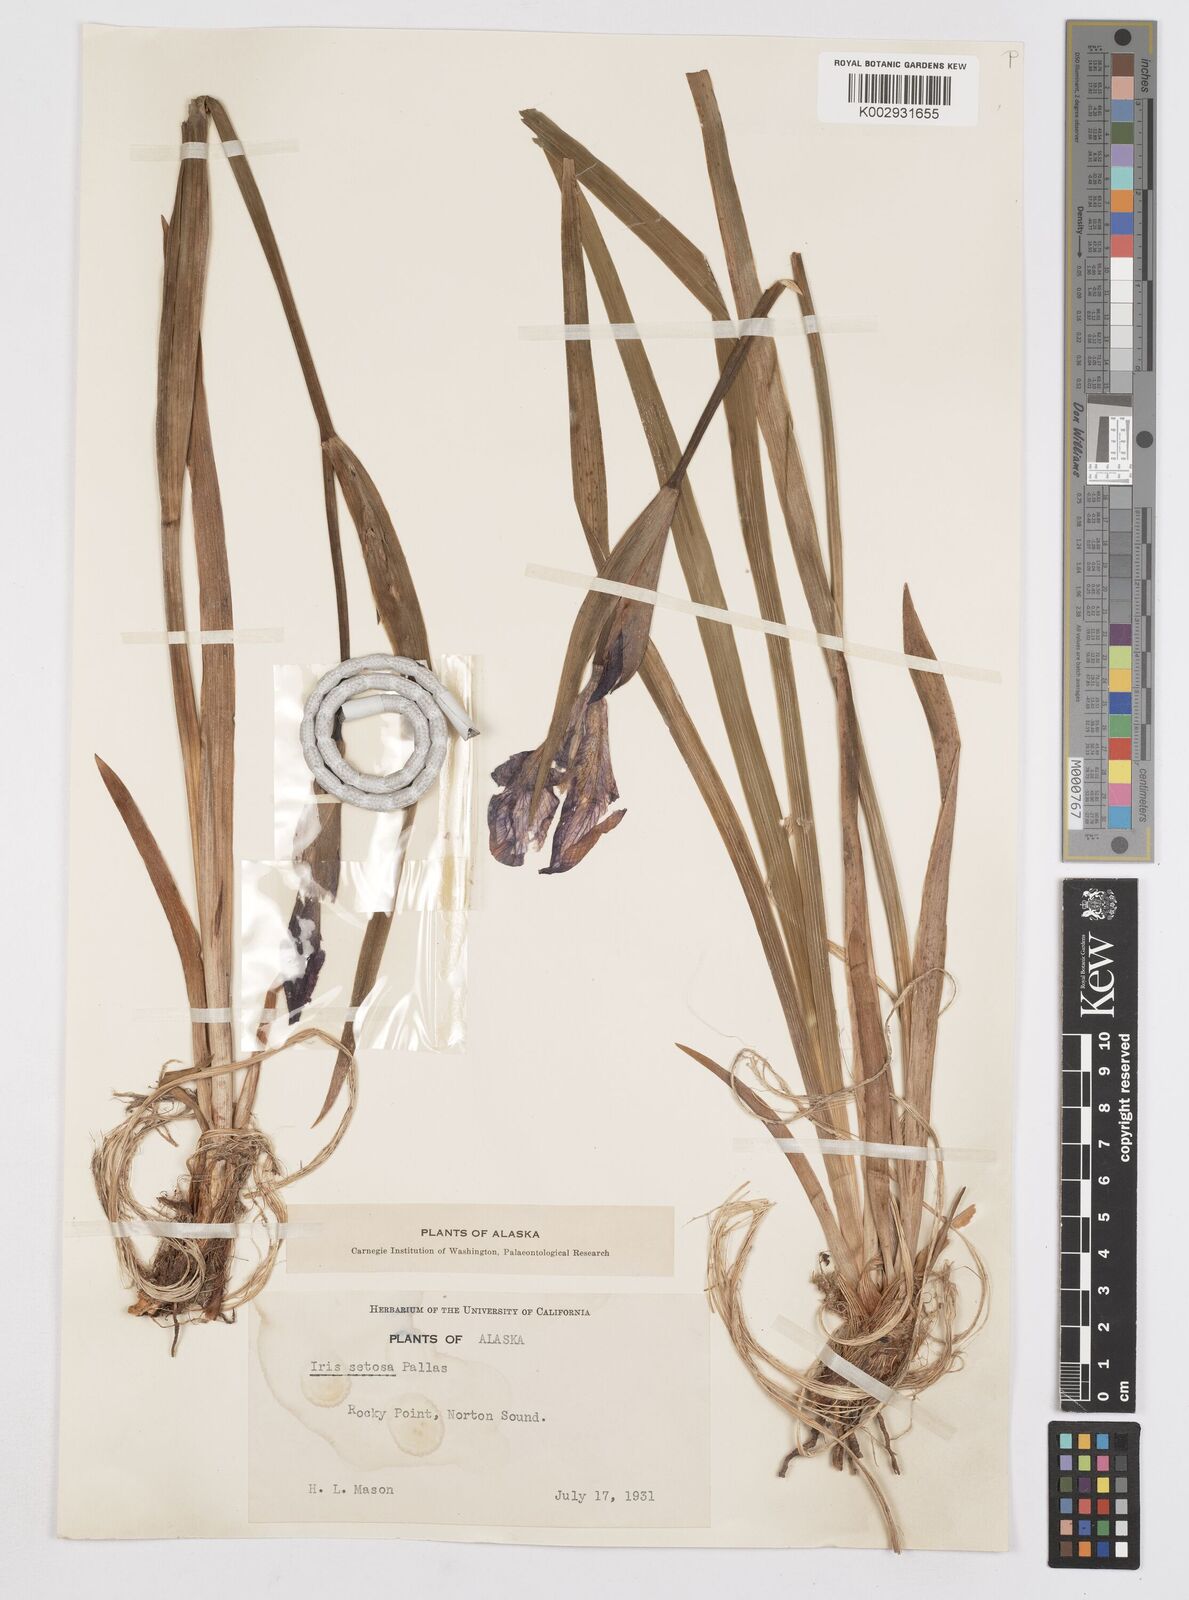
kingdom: Plantae
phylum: Tracheophyta
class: Liliopsida
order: Asparagales
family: Iridaceae
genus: Iris
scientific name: Iris setosa
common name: Arctic blue flag
